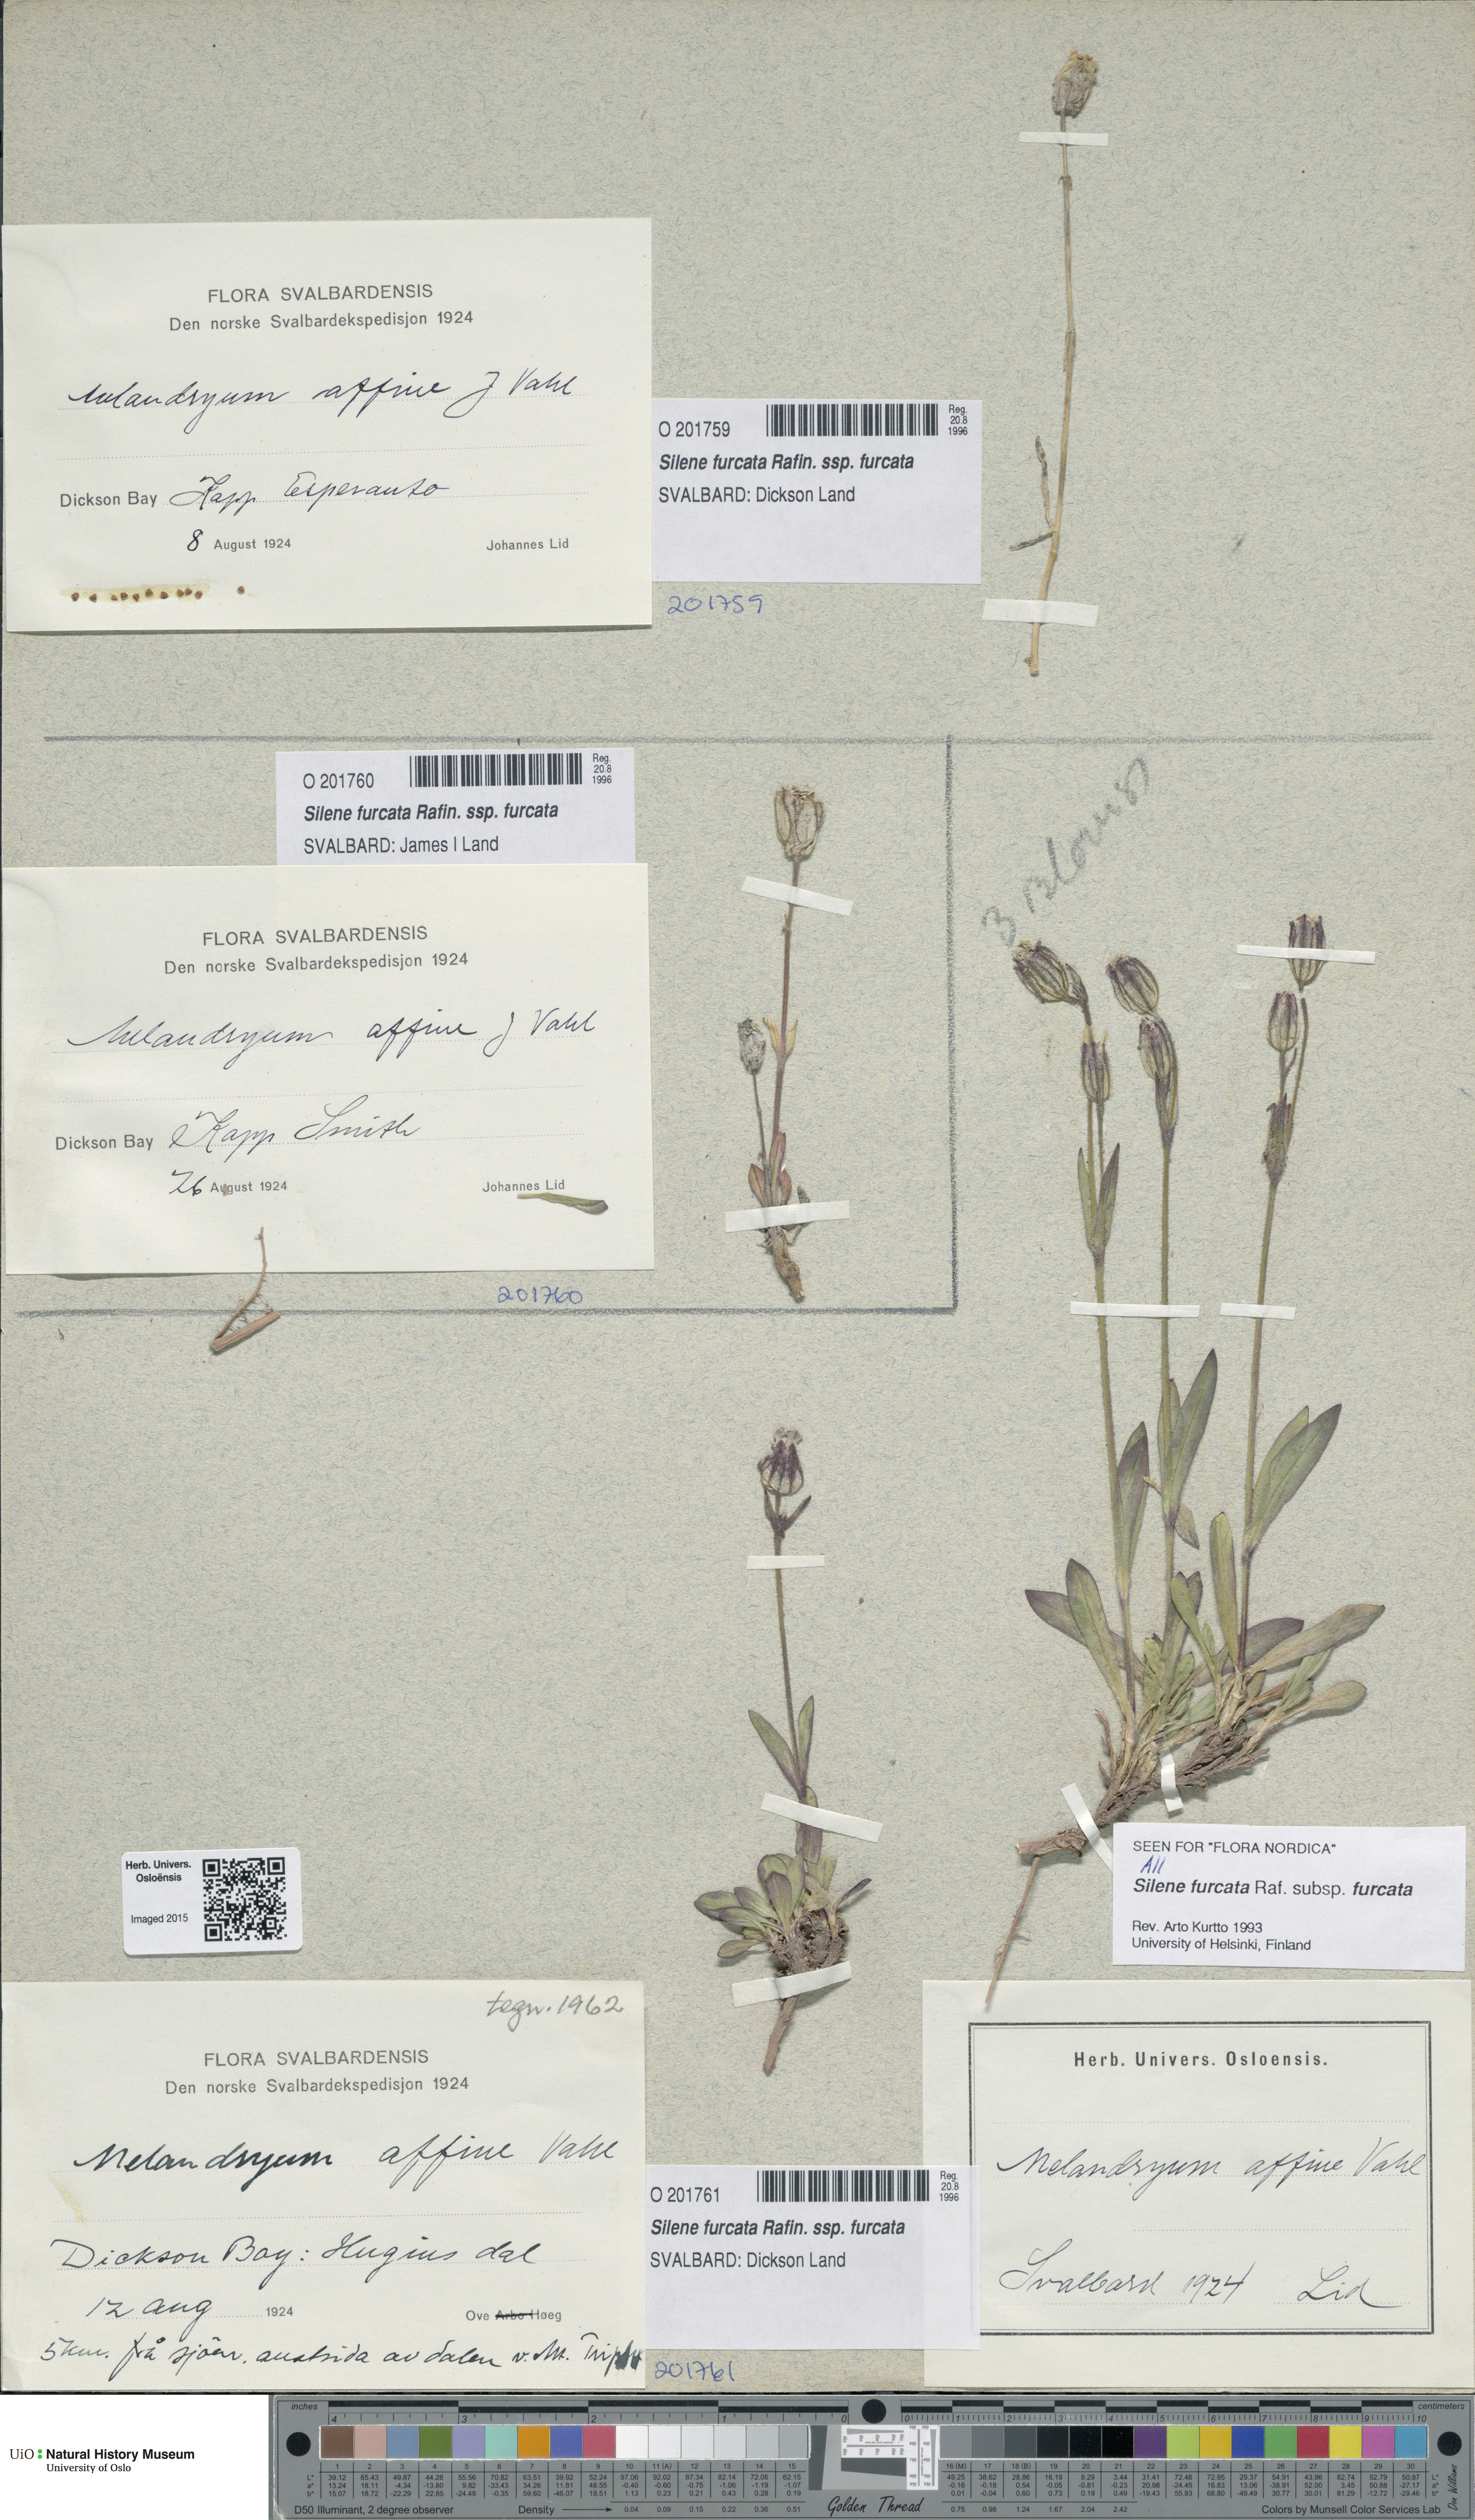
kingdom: Plantae
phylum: Tracheophyta
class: Magnoliopsida
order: Caryophyllales
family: Caryophyllaceae
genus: Silene
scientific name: Silene involucrata
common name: Greater arctic campion
